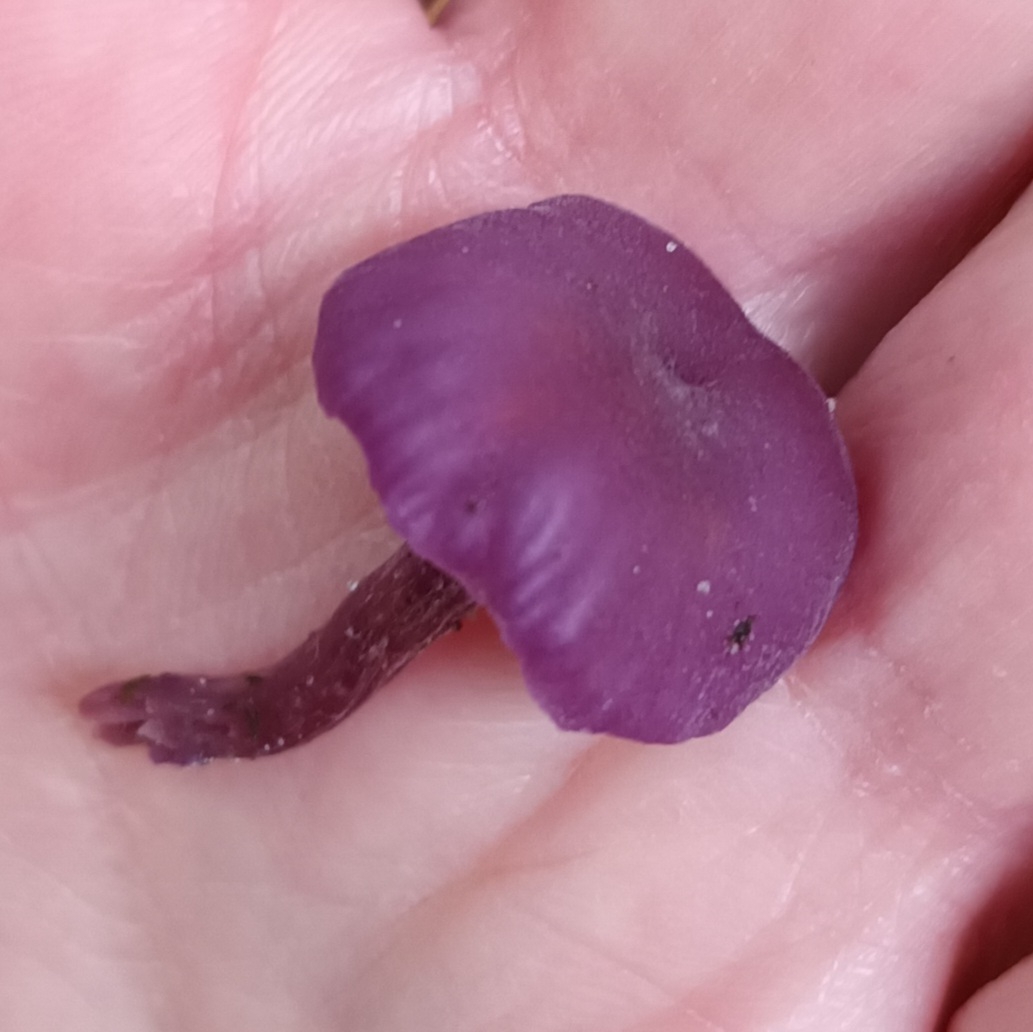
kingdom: Fungi
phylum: Basidiomycota
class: Agaricomycetes
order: Agaricales
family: Hydnangiaceae
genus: Laccaria
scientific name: Laccaria amethystina
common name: Violet ametysthat
